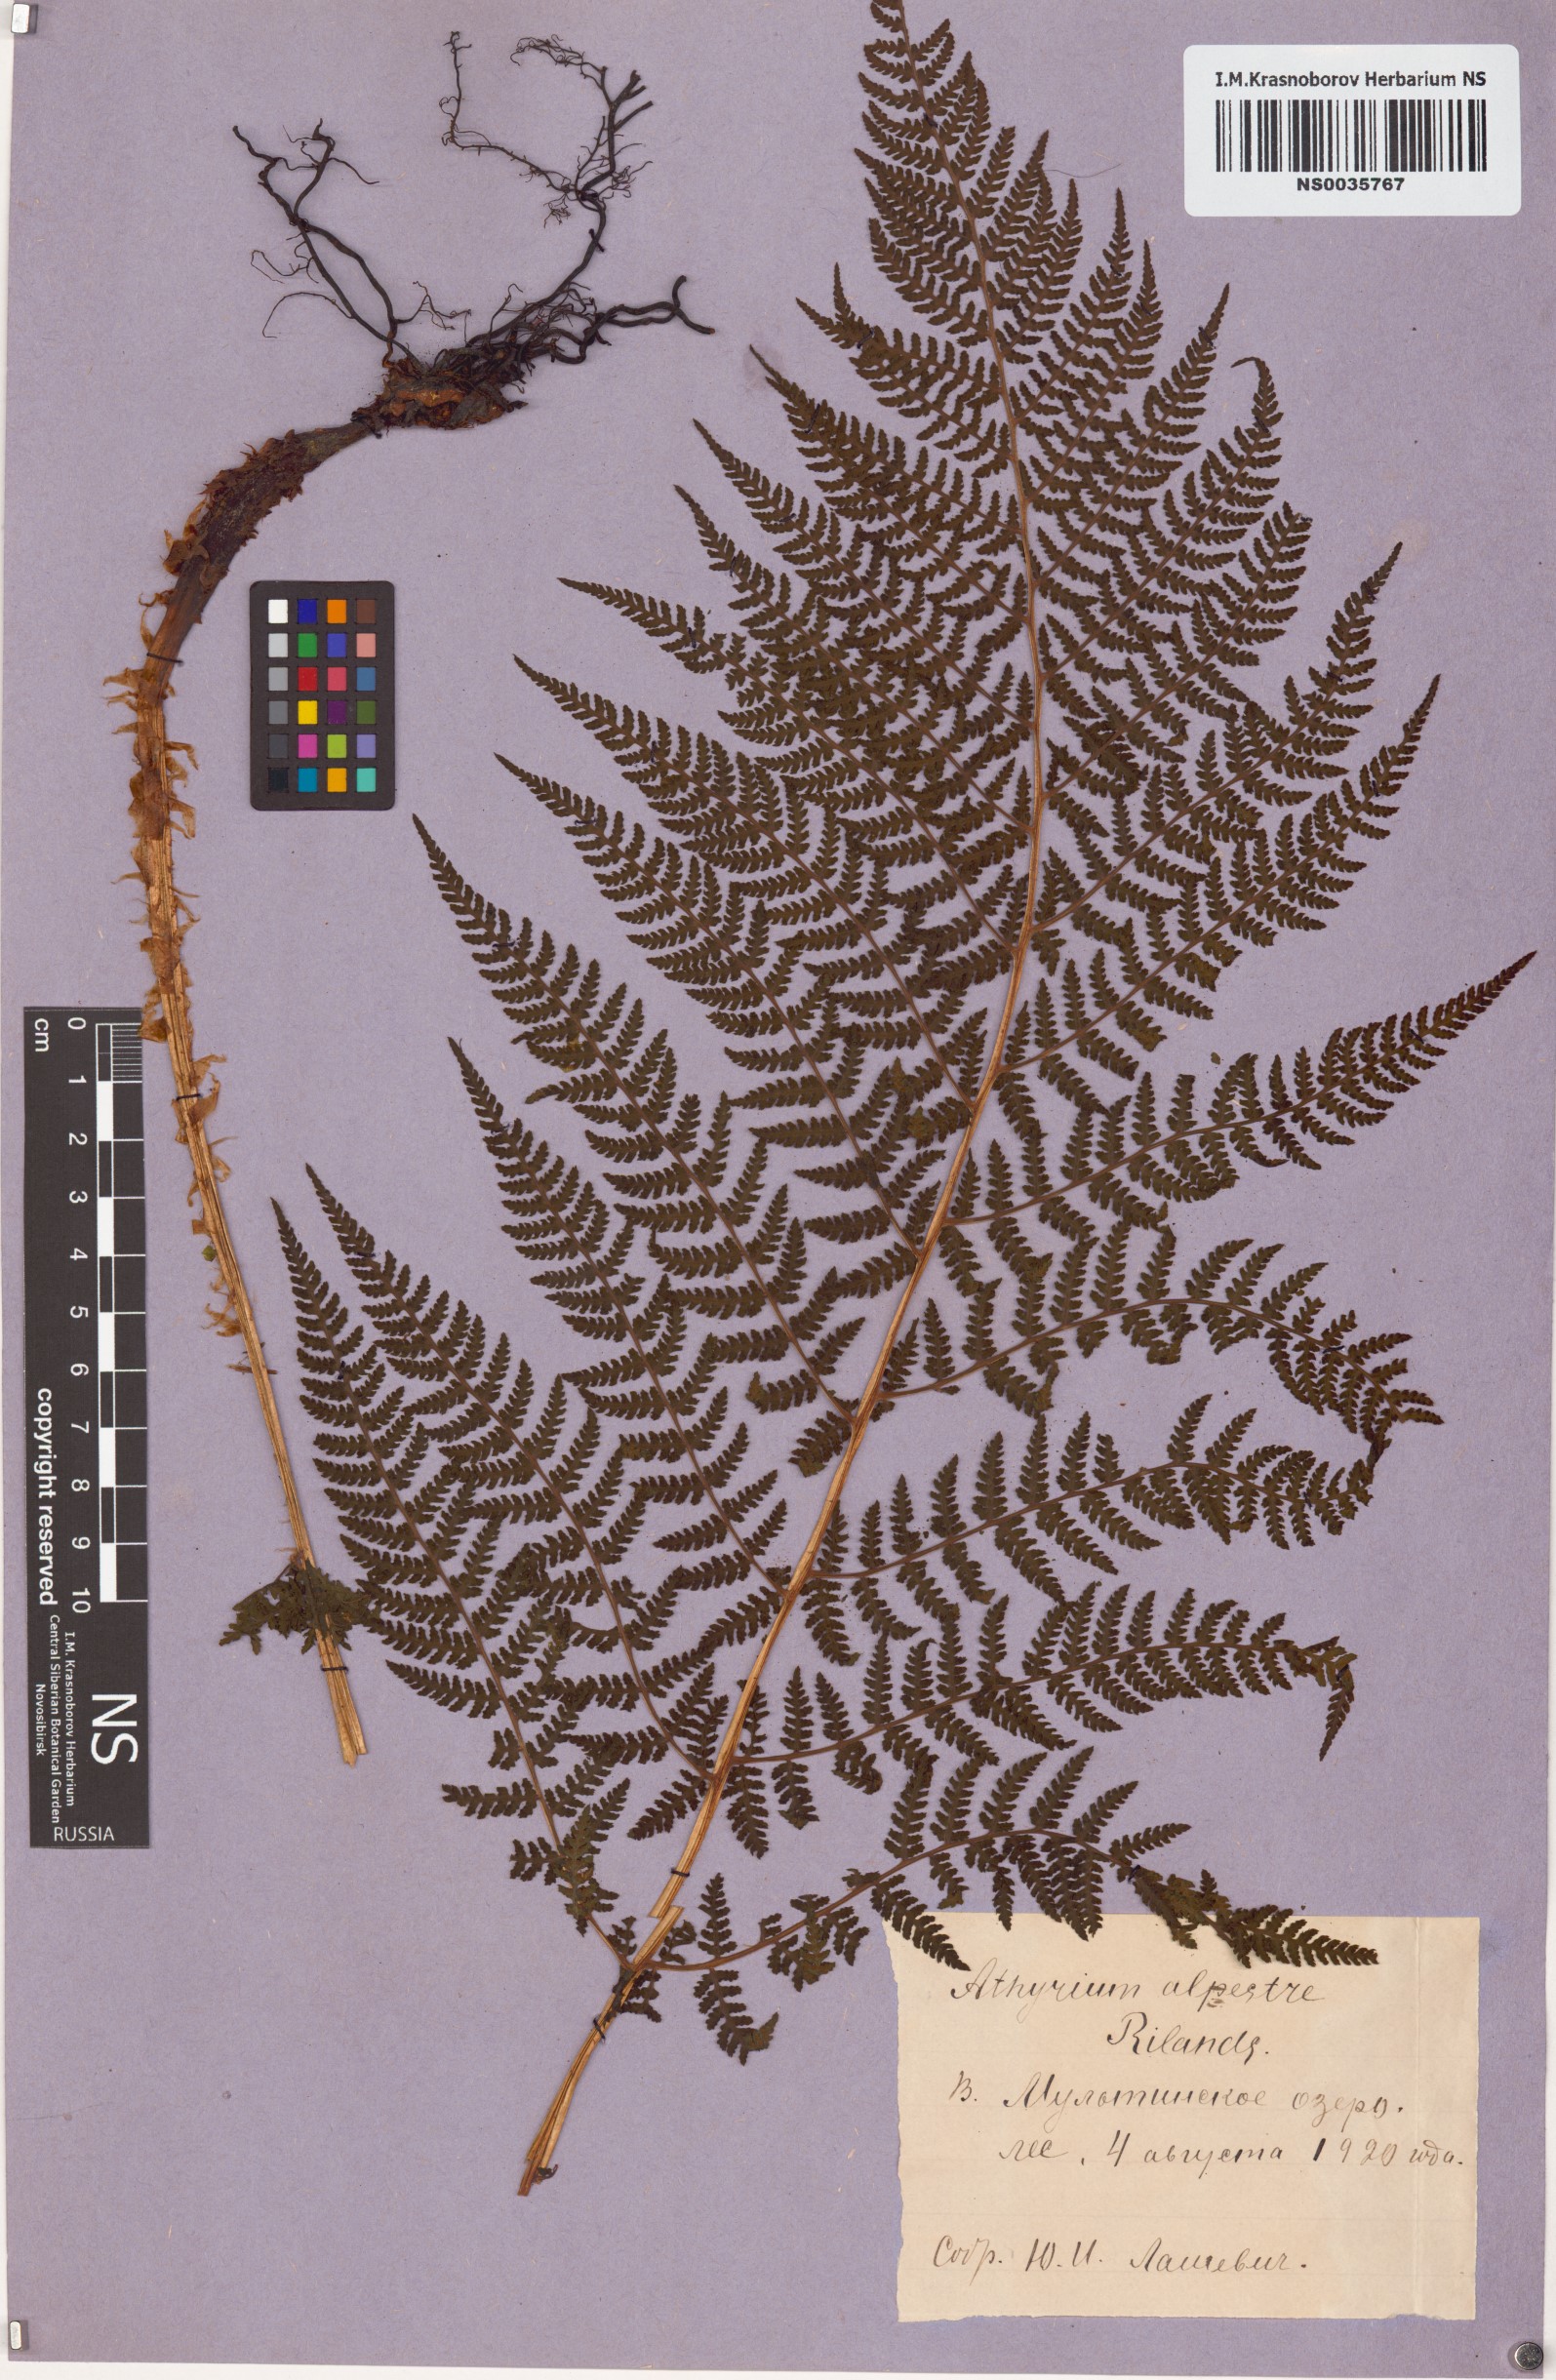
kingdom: Plantae
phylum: Tracheophyta
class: Polypodiopsida
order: Polypodiales
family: Athyriaceae
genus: Pseudathyrium
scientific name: Pseudathyrium alpestre
